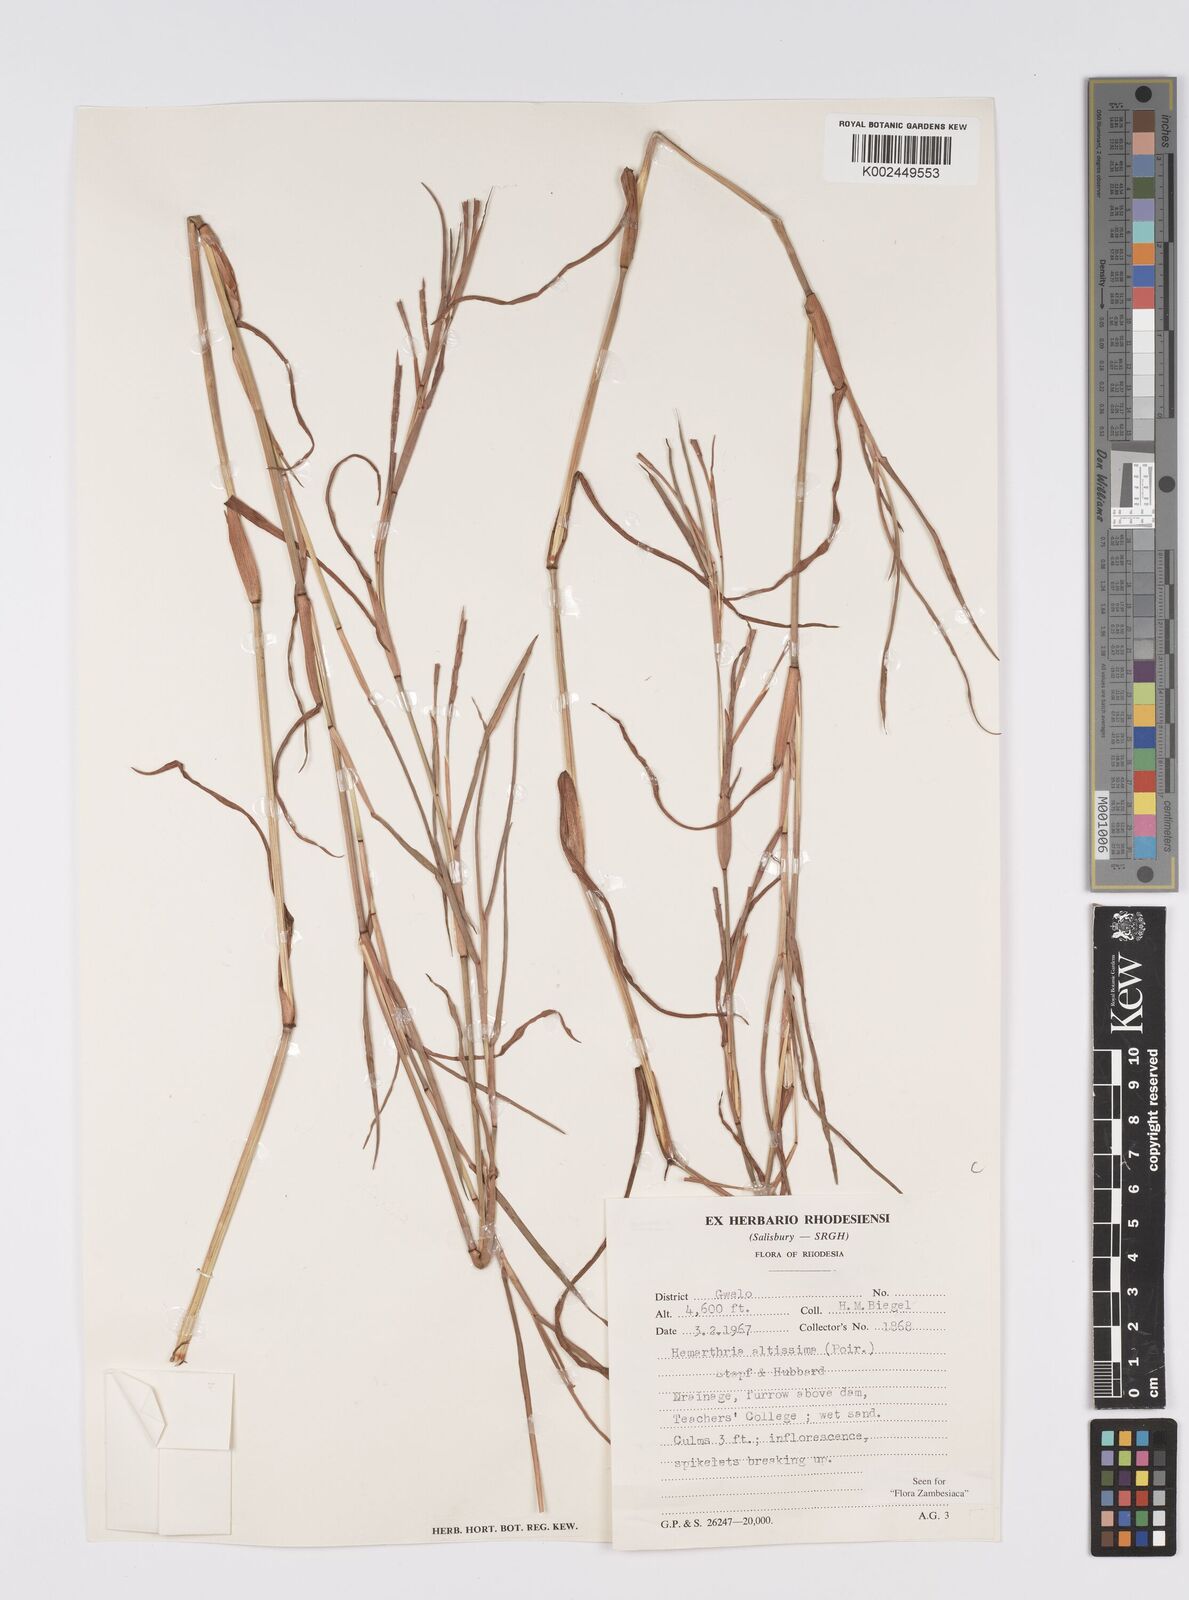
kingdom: Plantae
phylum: Tracheophyta
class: Liliopsida
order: Poales
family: Poaceae
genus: Hemarthria
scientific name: Hemarthria altissima
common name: African jointgrass
